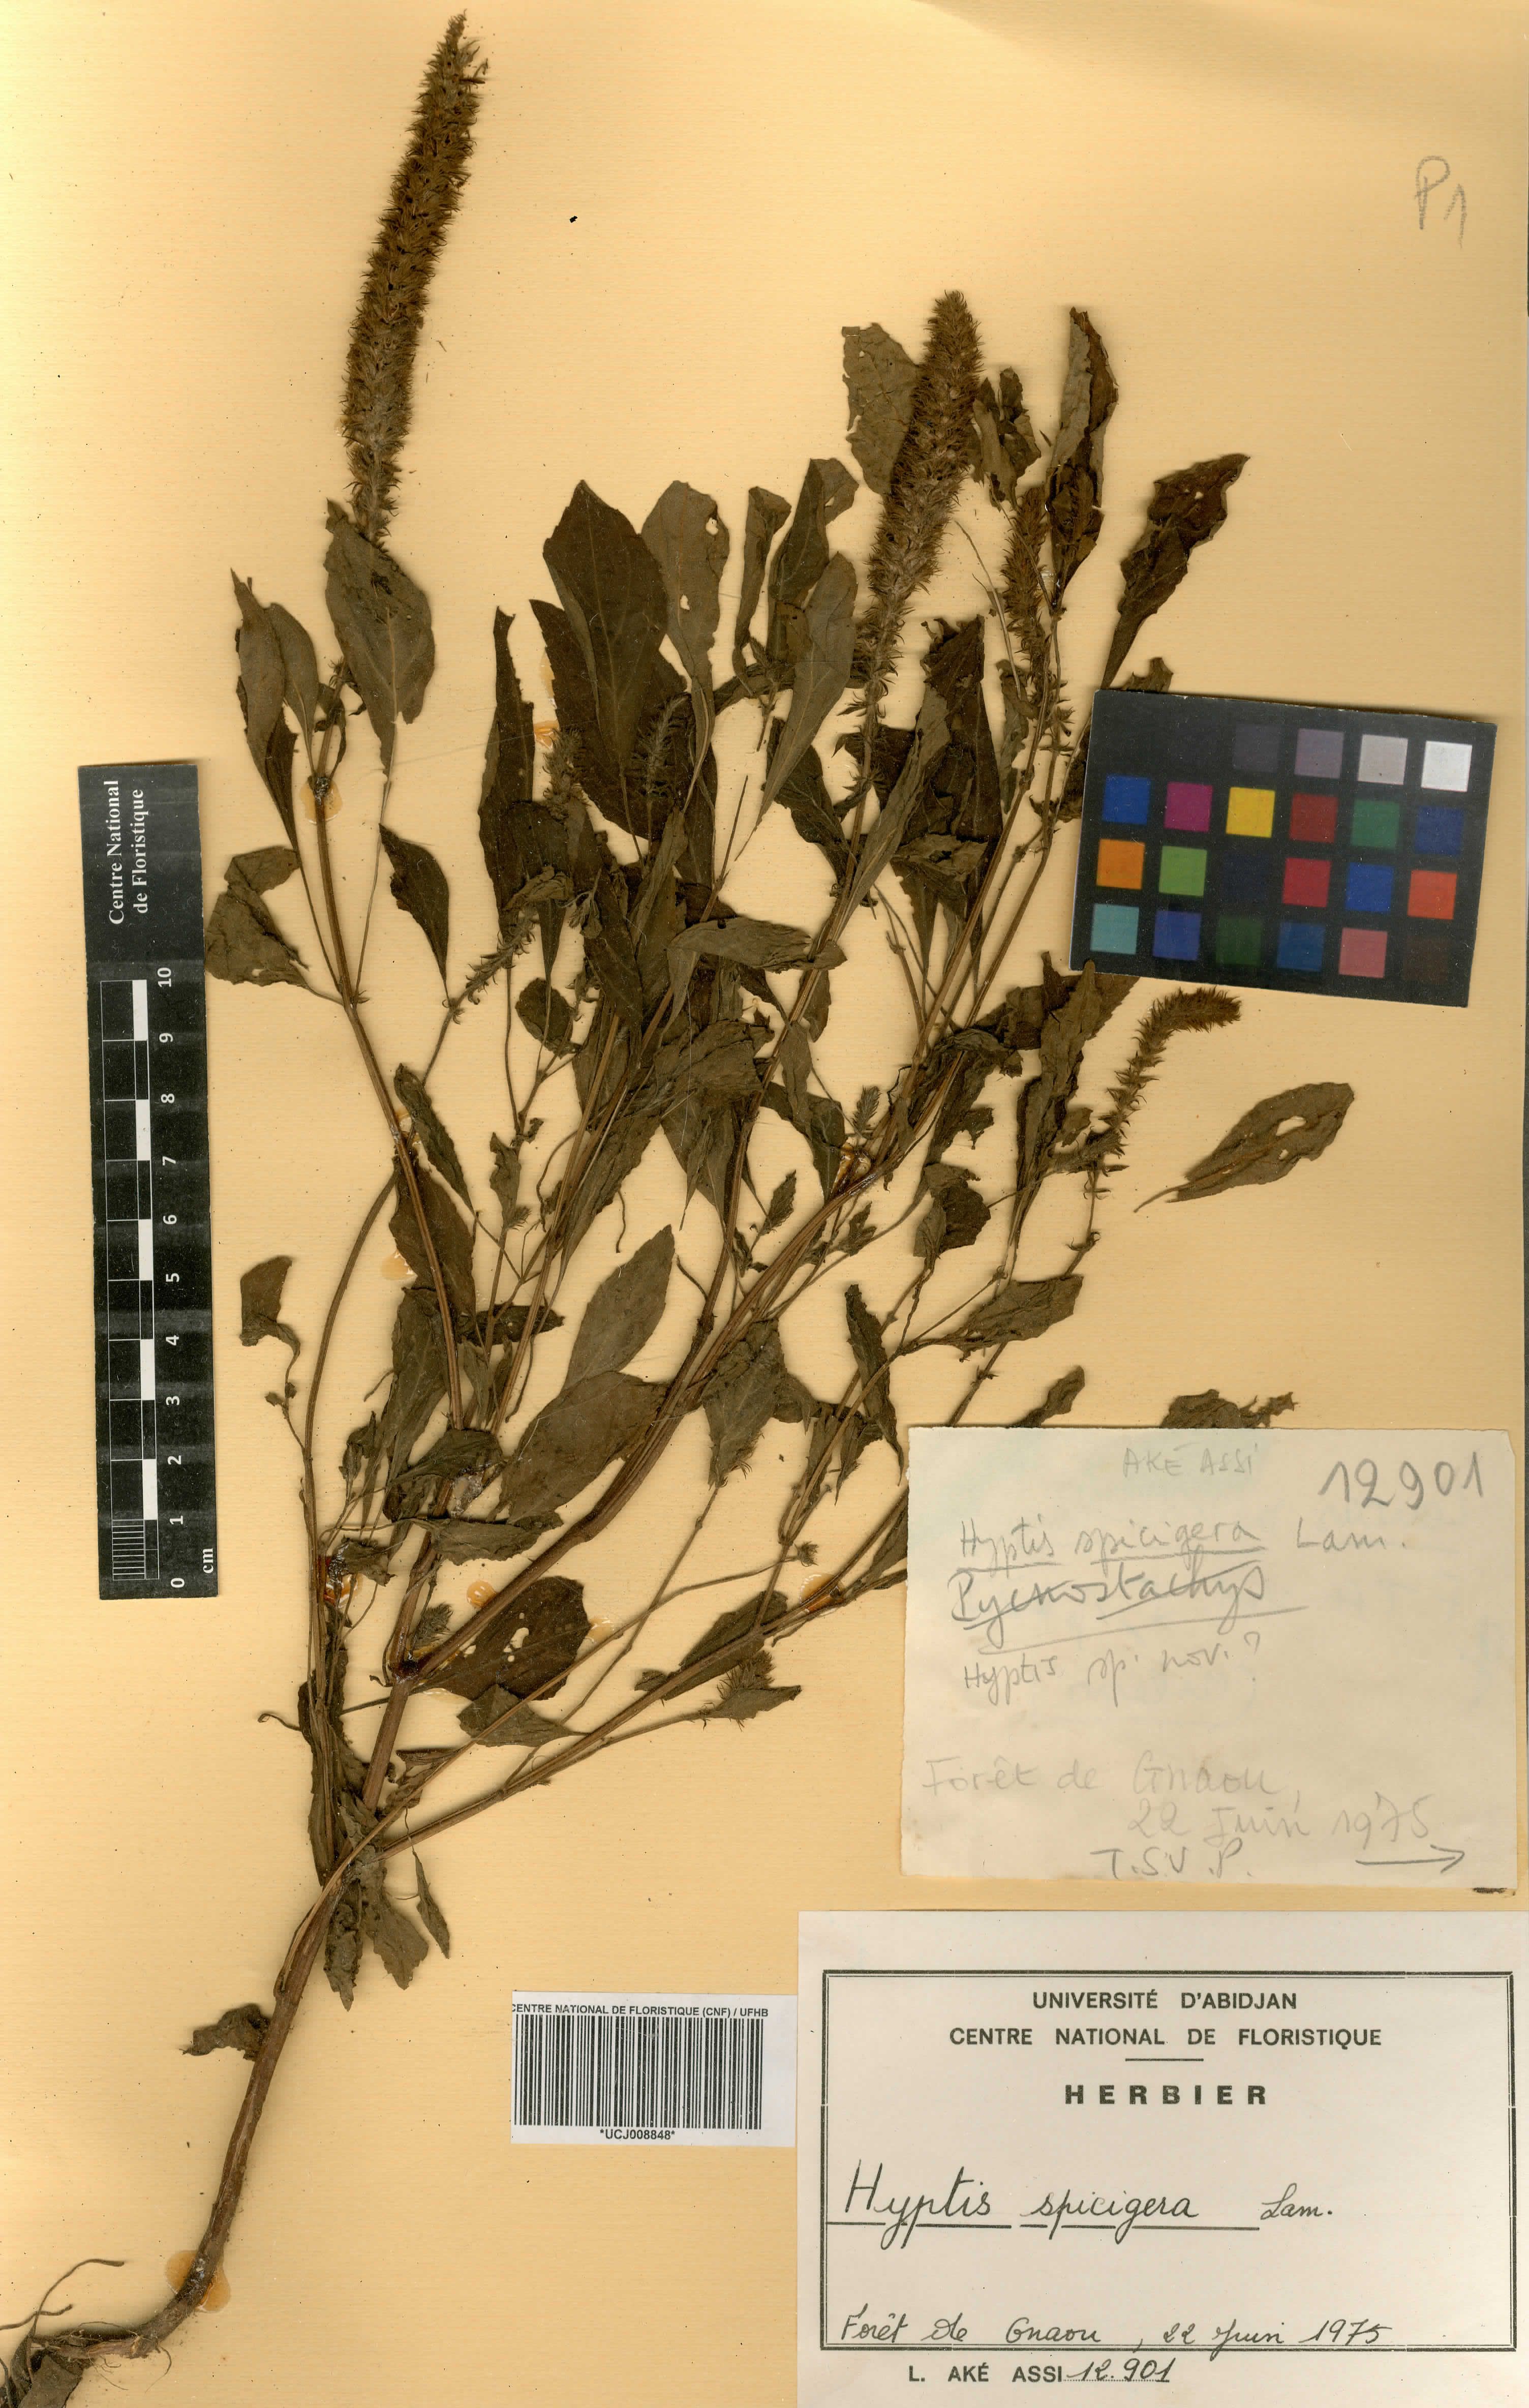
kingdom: Plantae
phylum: Tracheophyta
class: Magnoliopsida
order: Lamiales
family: Lamiaceae
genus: Cantinoa
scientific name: Cantinoa americana
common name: Black-sesame
